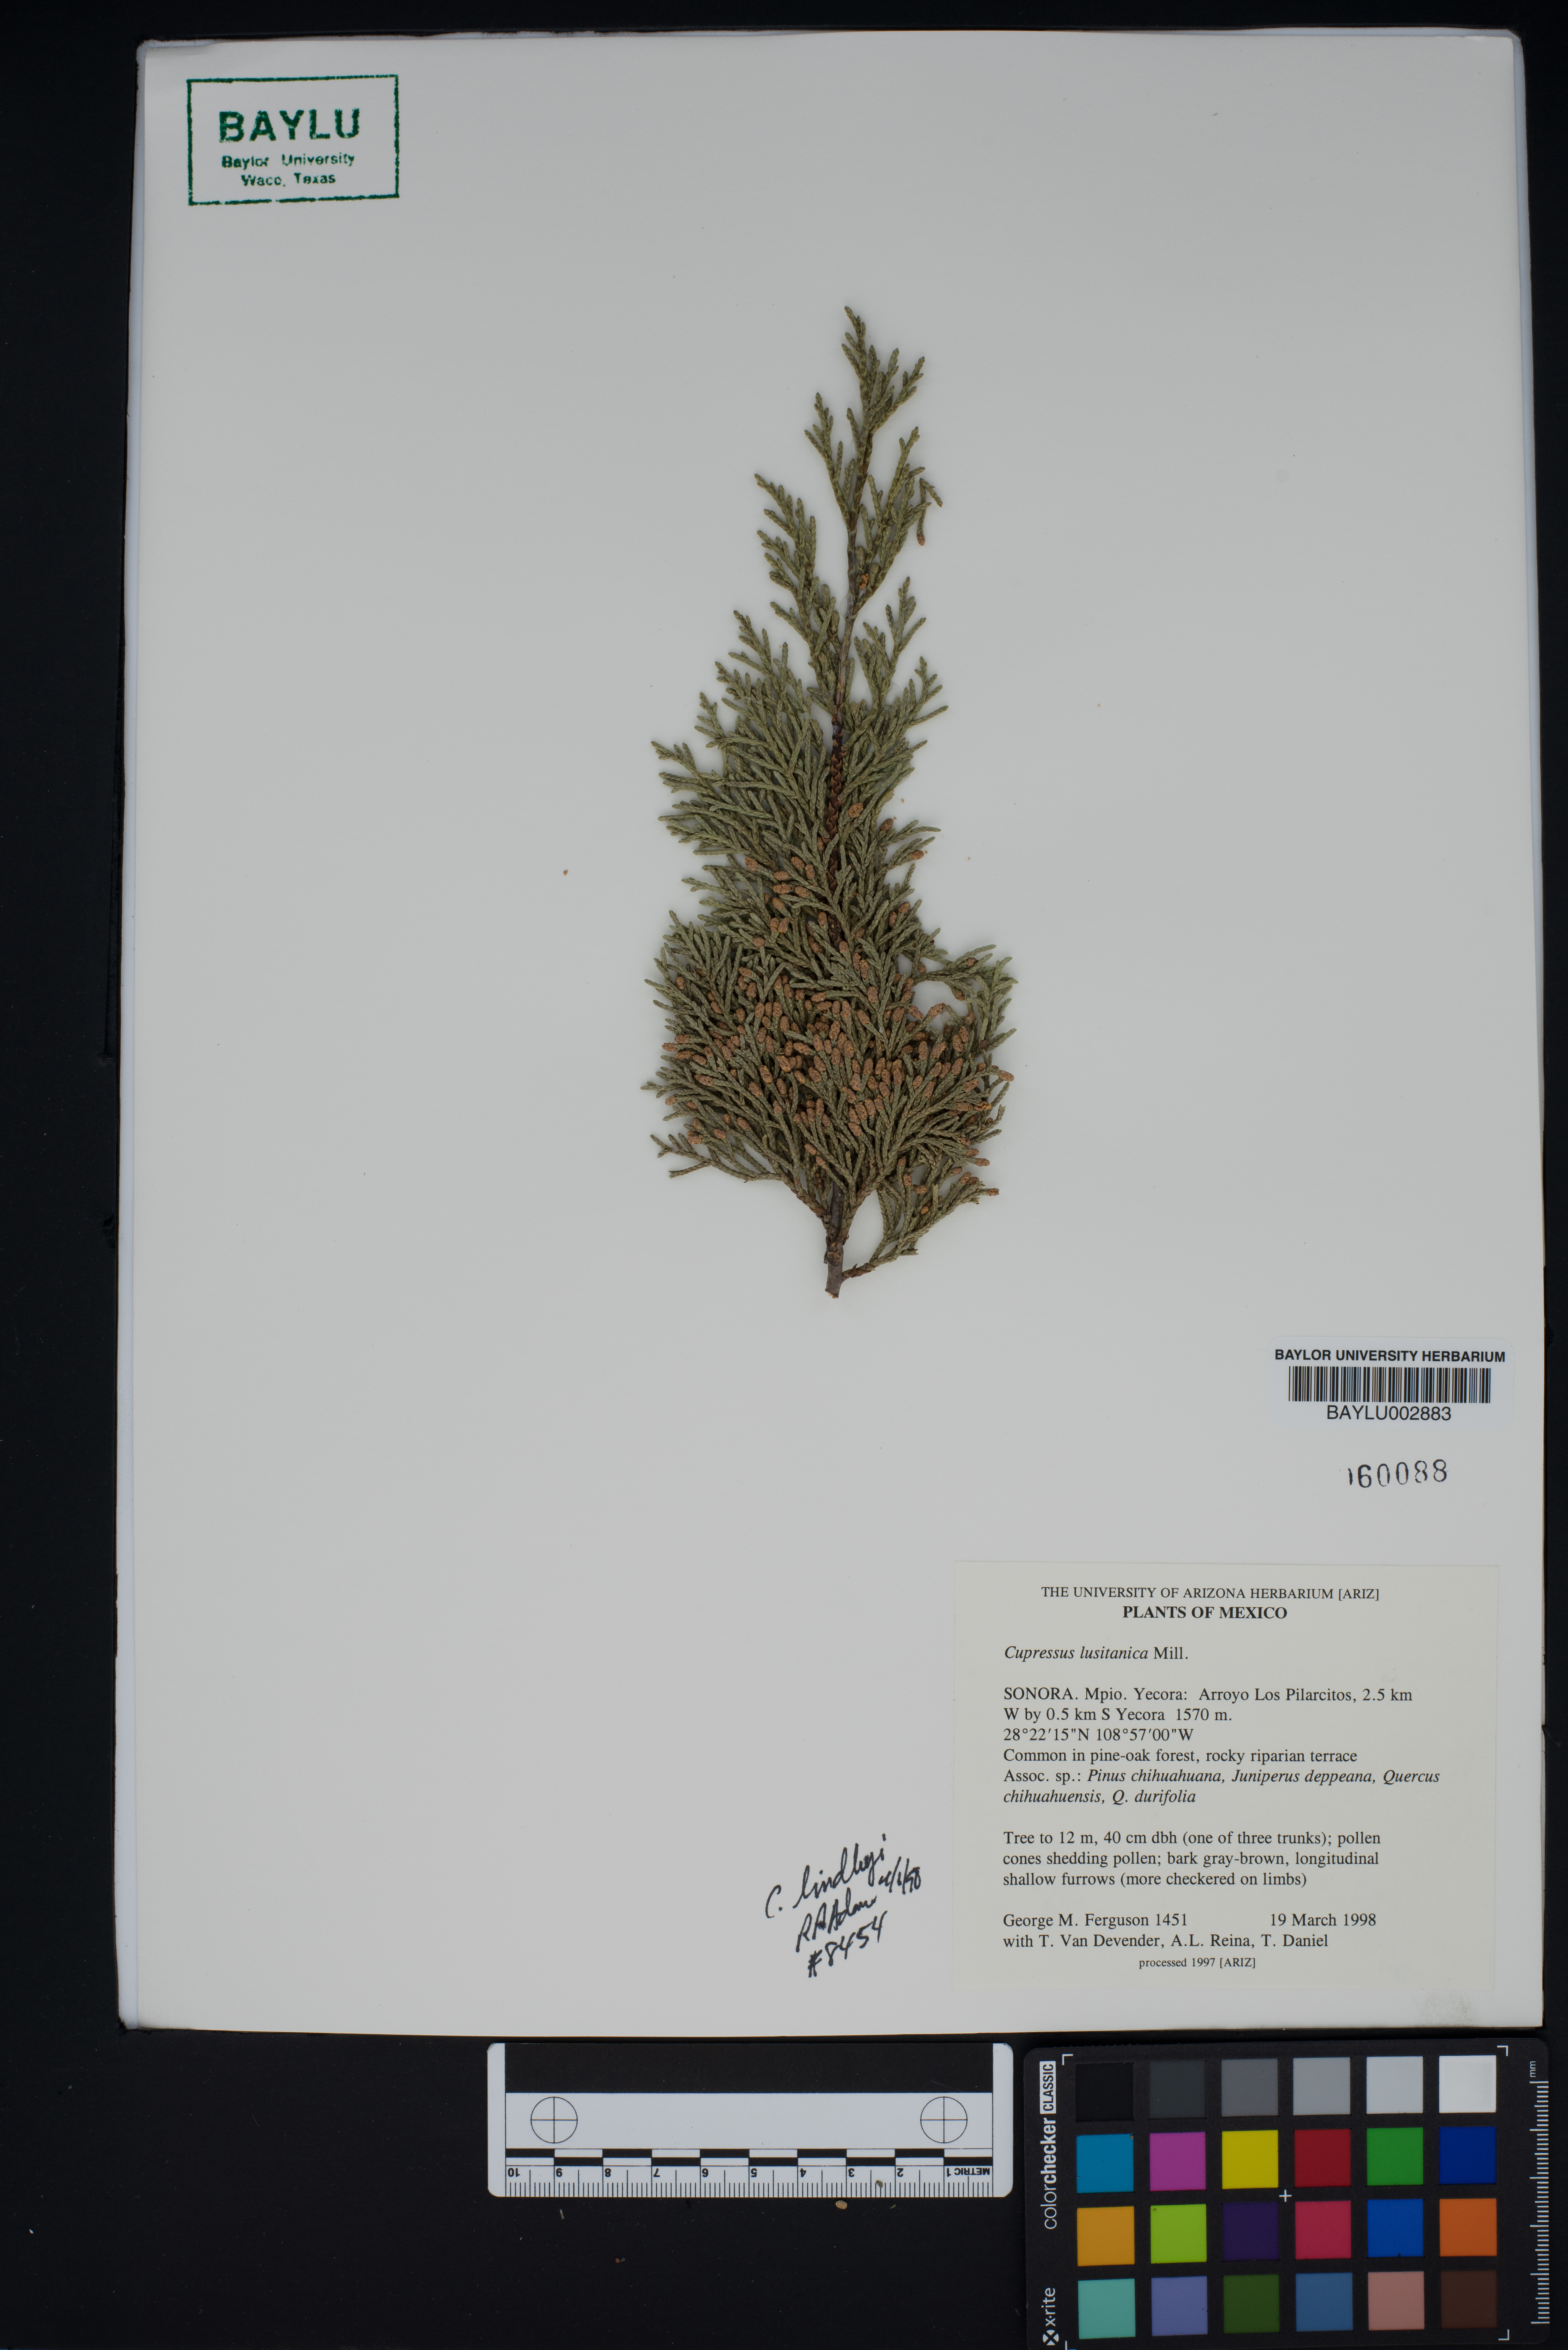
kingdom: Plantae
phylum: Tracheophyta
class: Pinopsida
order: Pinales
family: Cupressaceae
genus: Cupressus
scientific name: Cupressus lusitanica
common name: Mexican cypress
